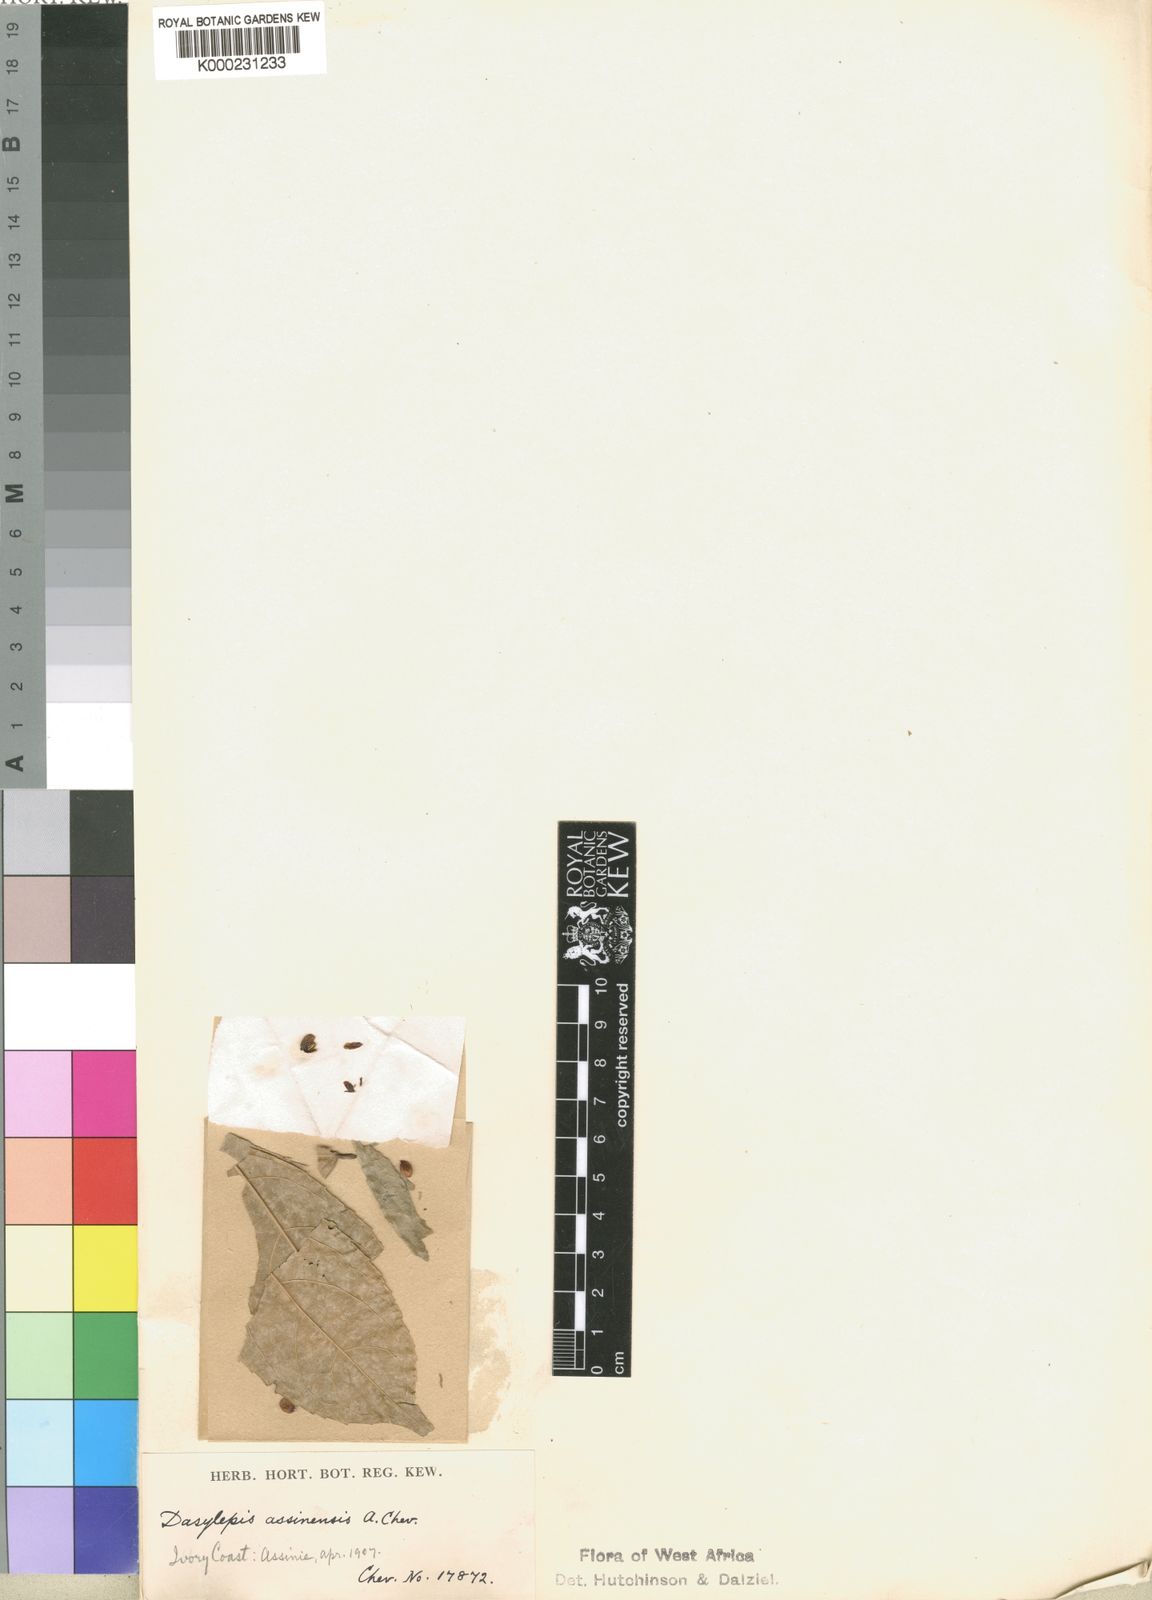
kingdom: Plantae
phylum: Tracheophyta
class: Magnoliopsida
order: Malpighiales
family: Achariaceae
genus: Dasylepis
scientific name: Dasylepis racemosa
